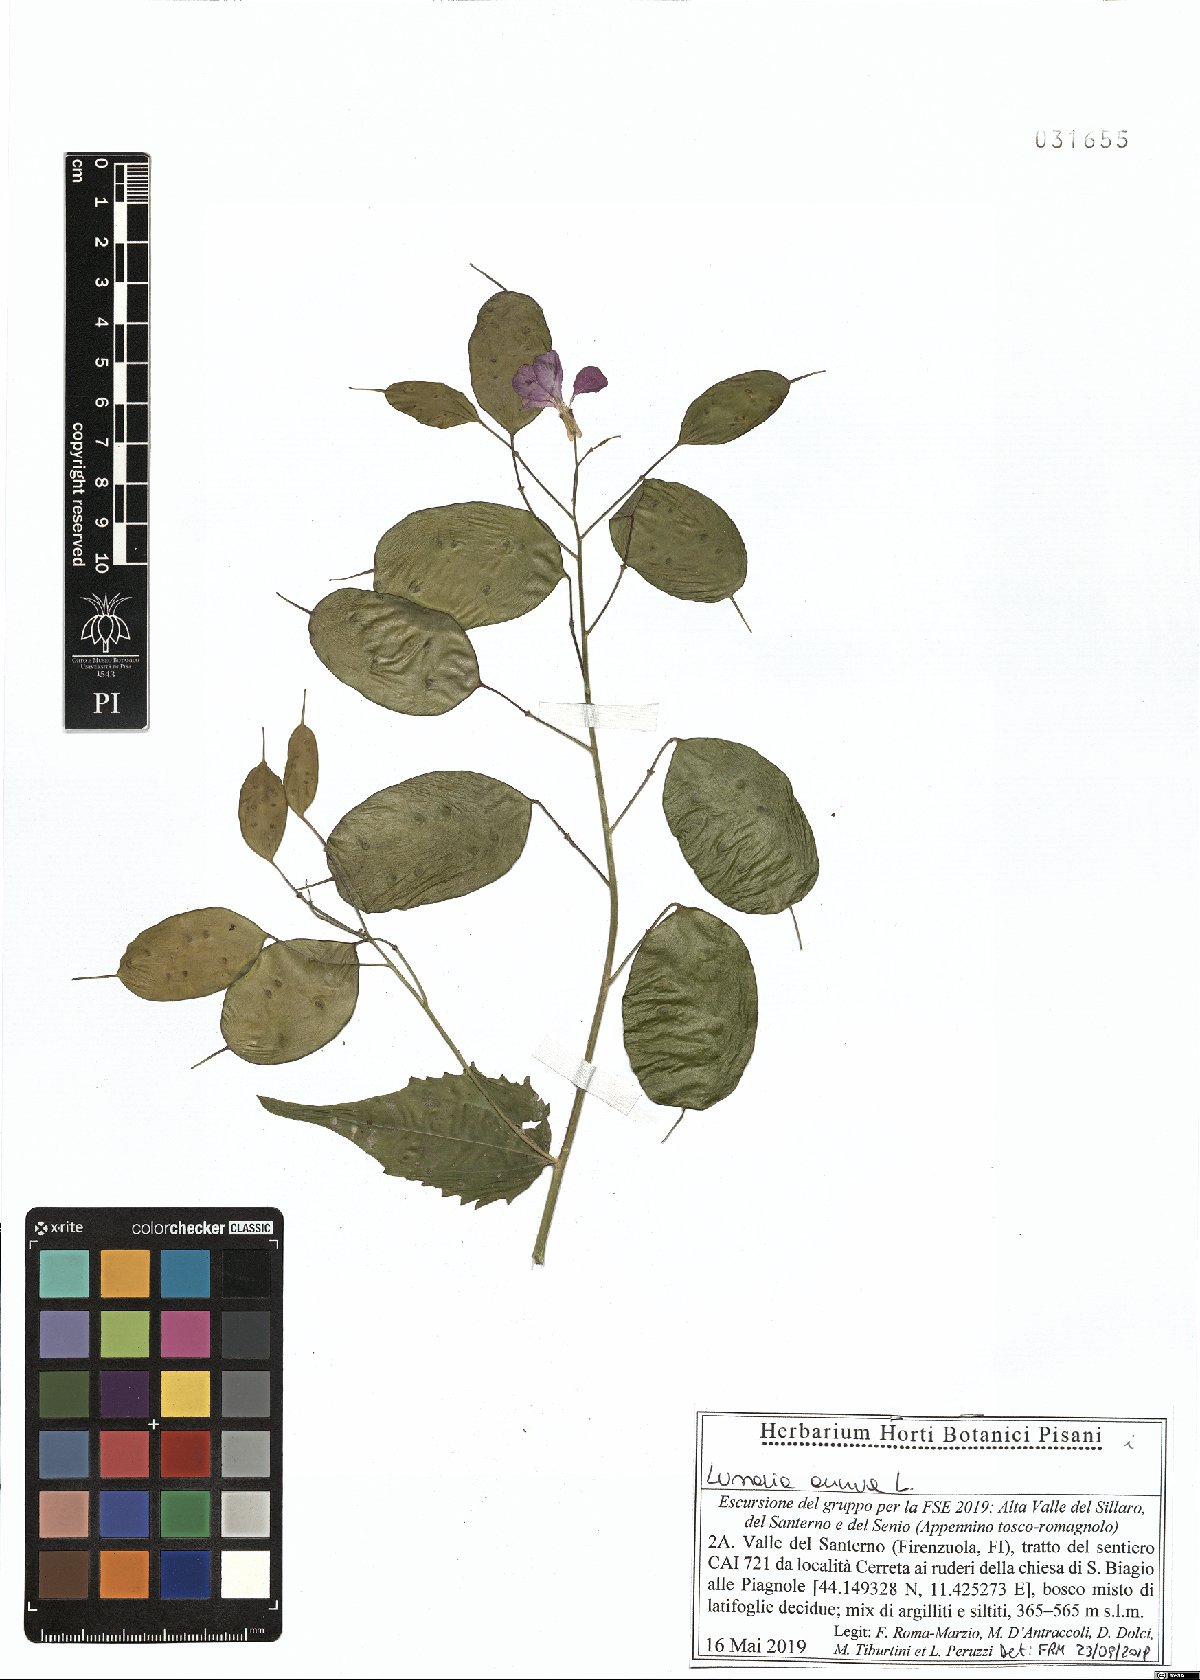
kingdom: Plantae
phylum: Tracheophyta
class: Magnoliopsida
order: Brassicales
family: Brassicaceae
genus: Lunaria
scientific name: Lunaria annua
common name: Honesty
